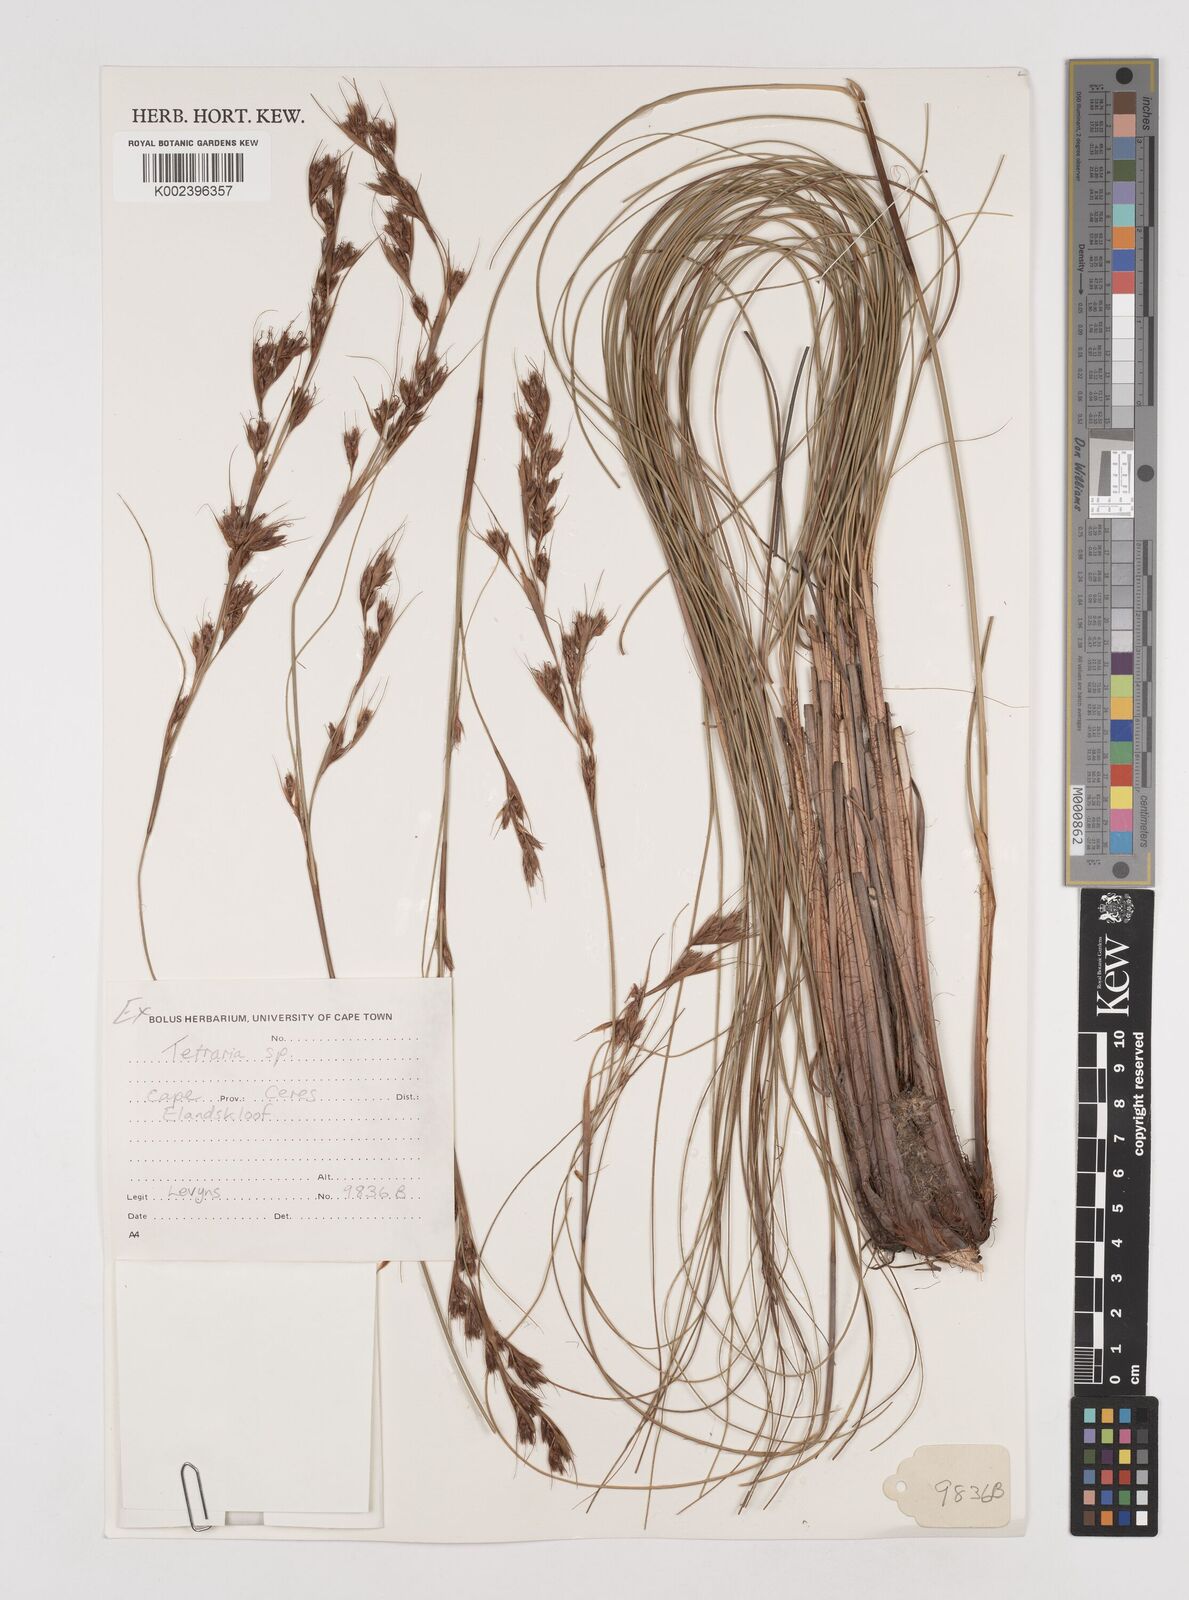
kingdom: Plantae
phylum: Tracheophyta
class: Liliopsida
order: Poales
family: Cyperaceae
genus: Tetraria
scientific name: Tetraria
